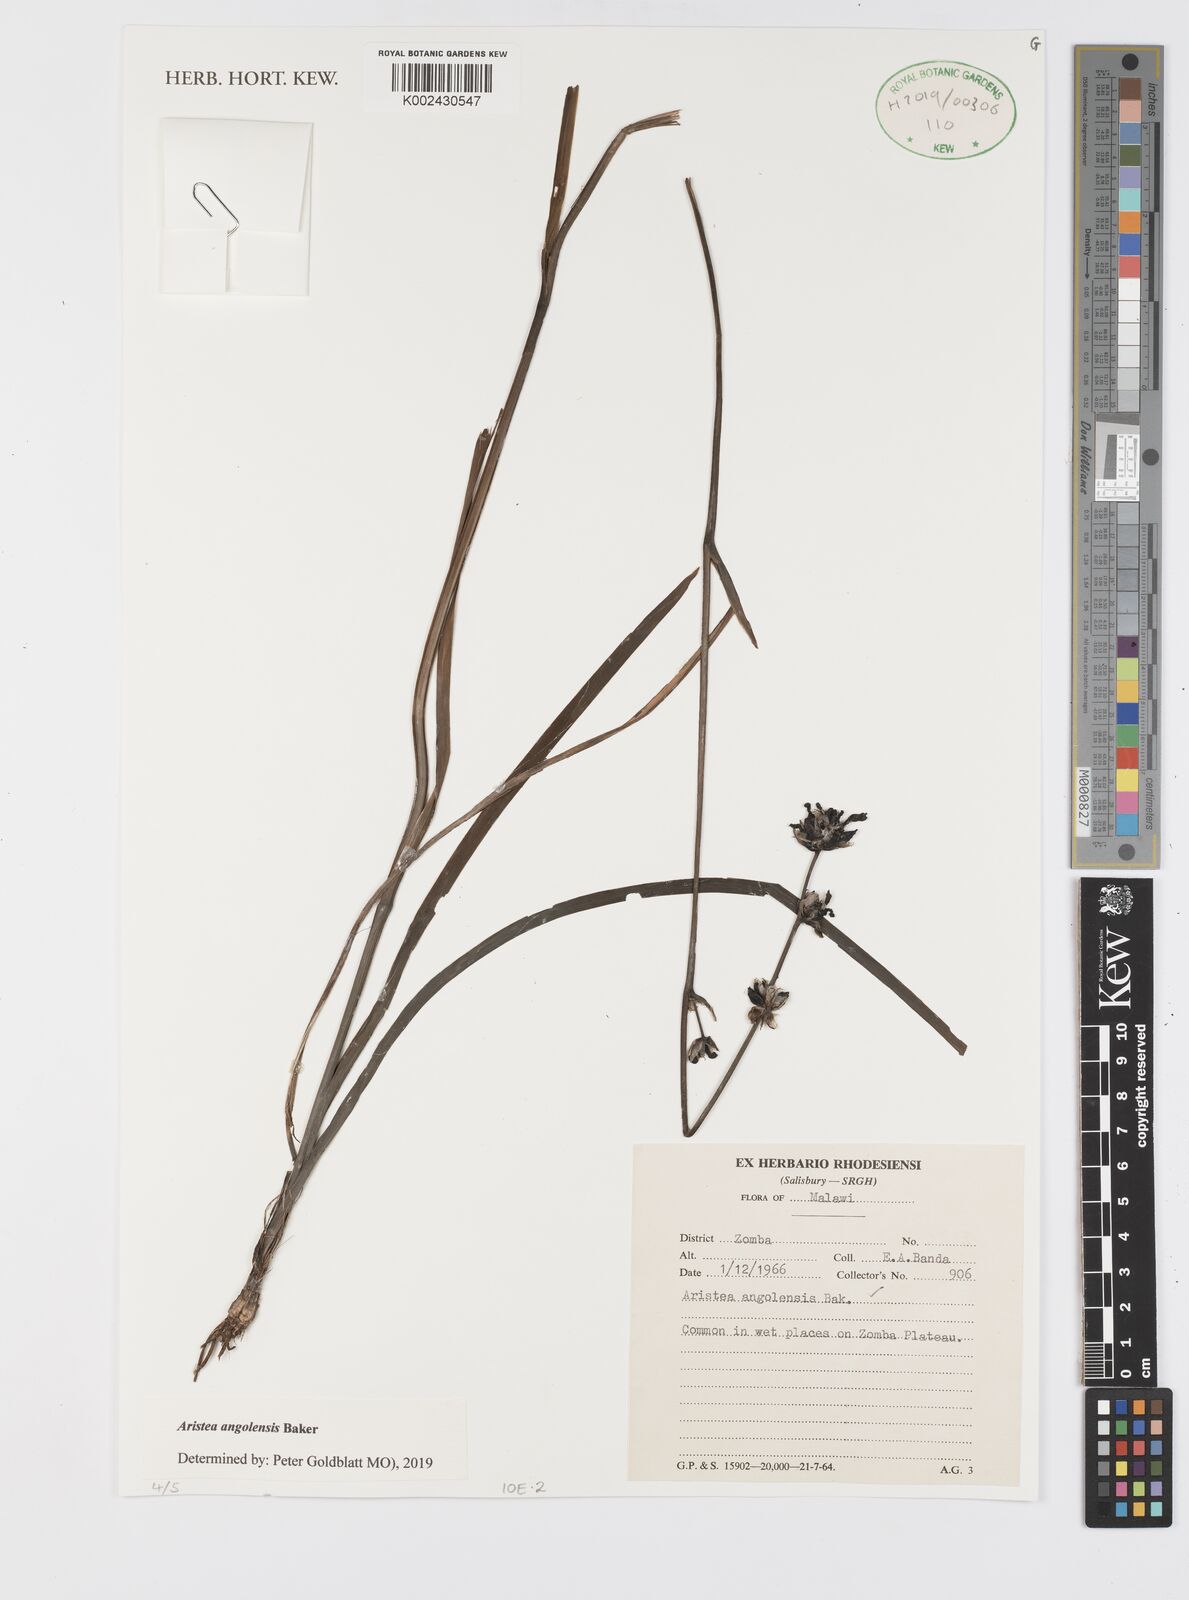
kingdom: Plantae
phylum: Tracheophyta
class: Liliopsida
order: Asparagales
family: Iridaceae
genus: Aristea
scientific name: Aristea angolensis
